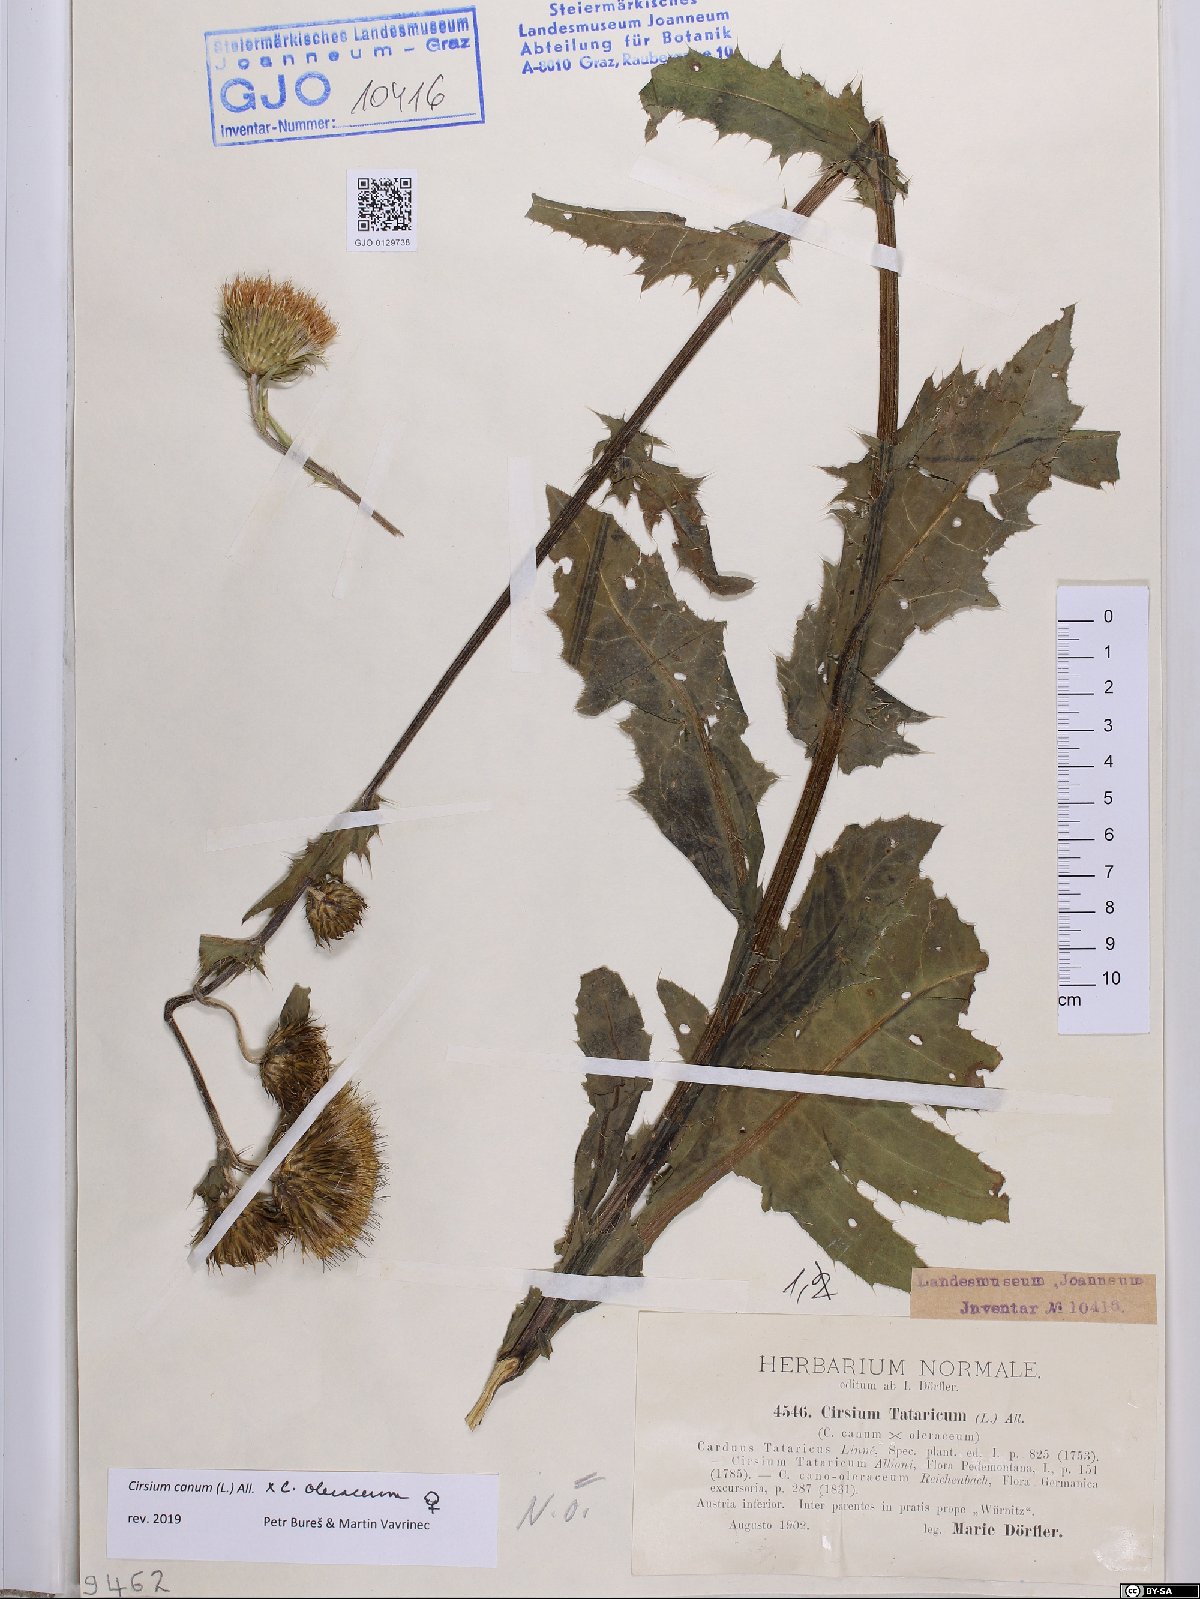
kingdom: Plantae
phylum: Tracheophyta
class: Magnoliopsida
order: Asterales
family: Asteraceae
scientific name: Asteraceae
